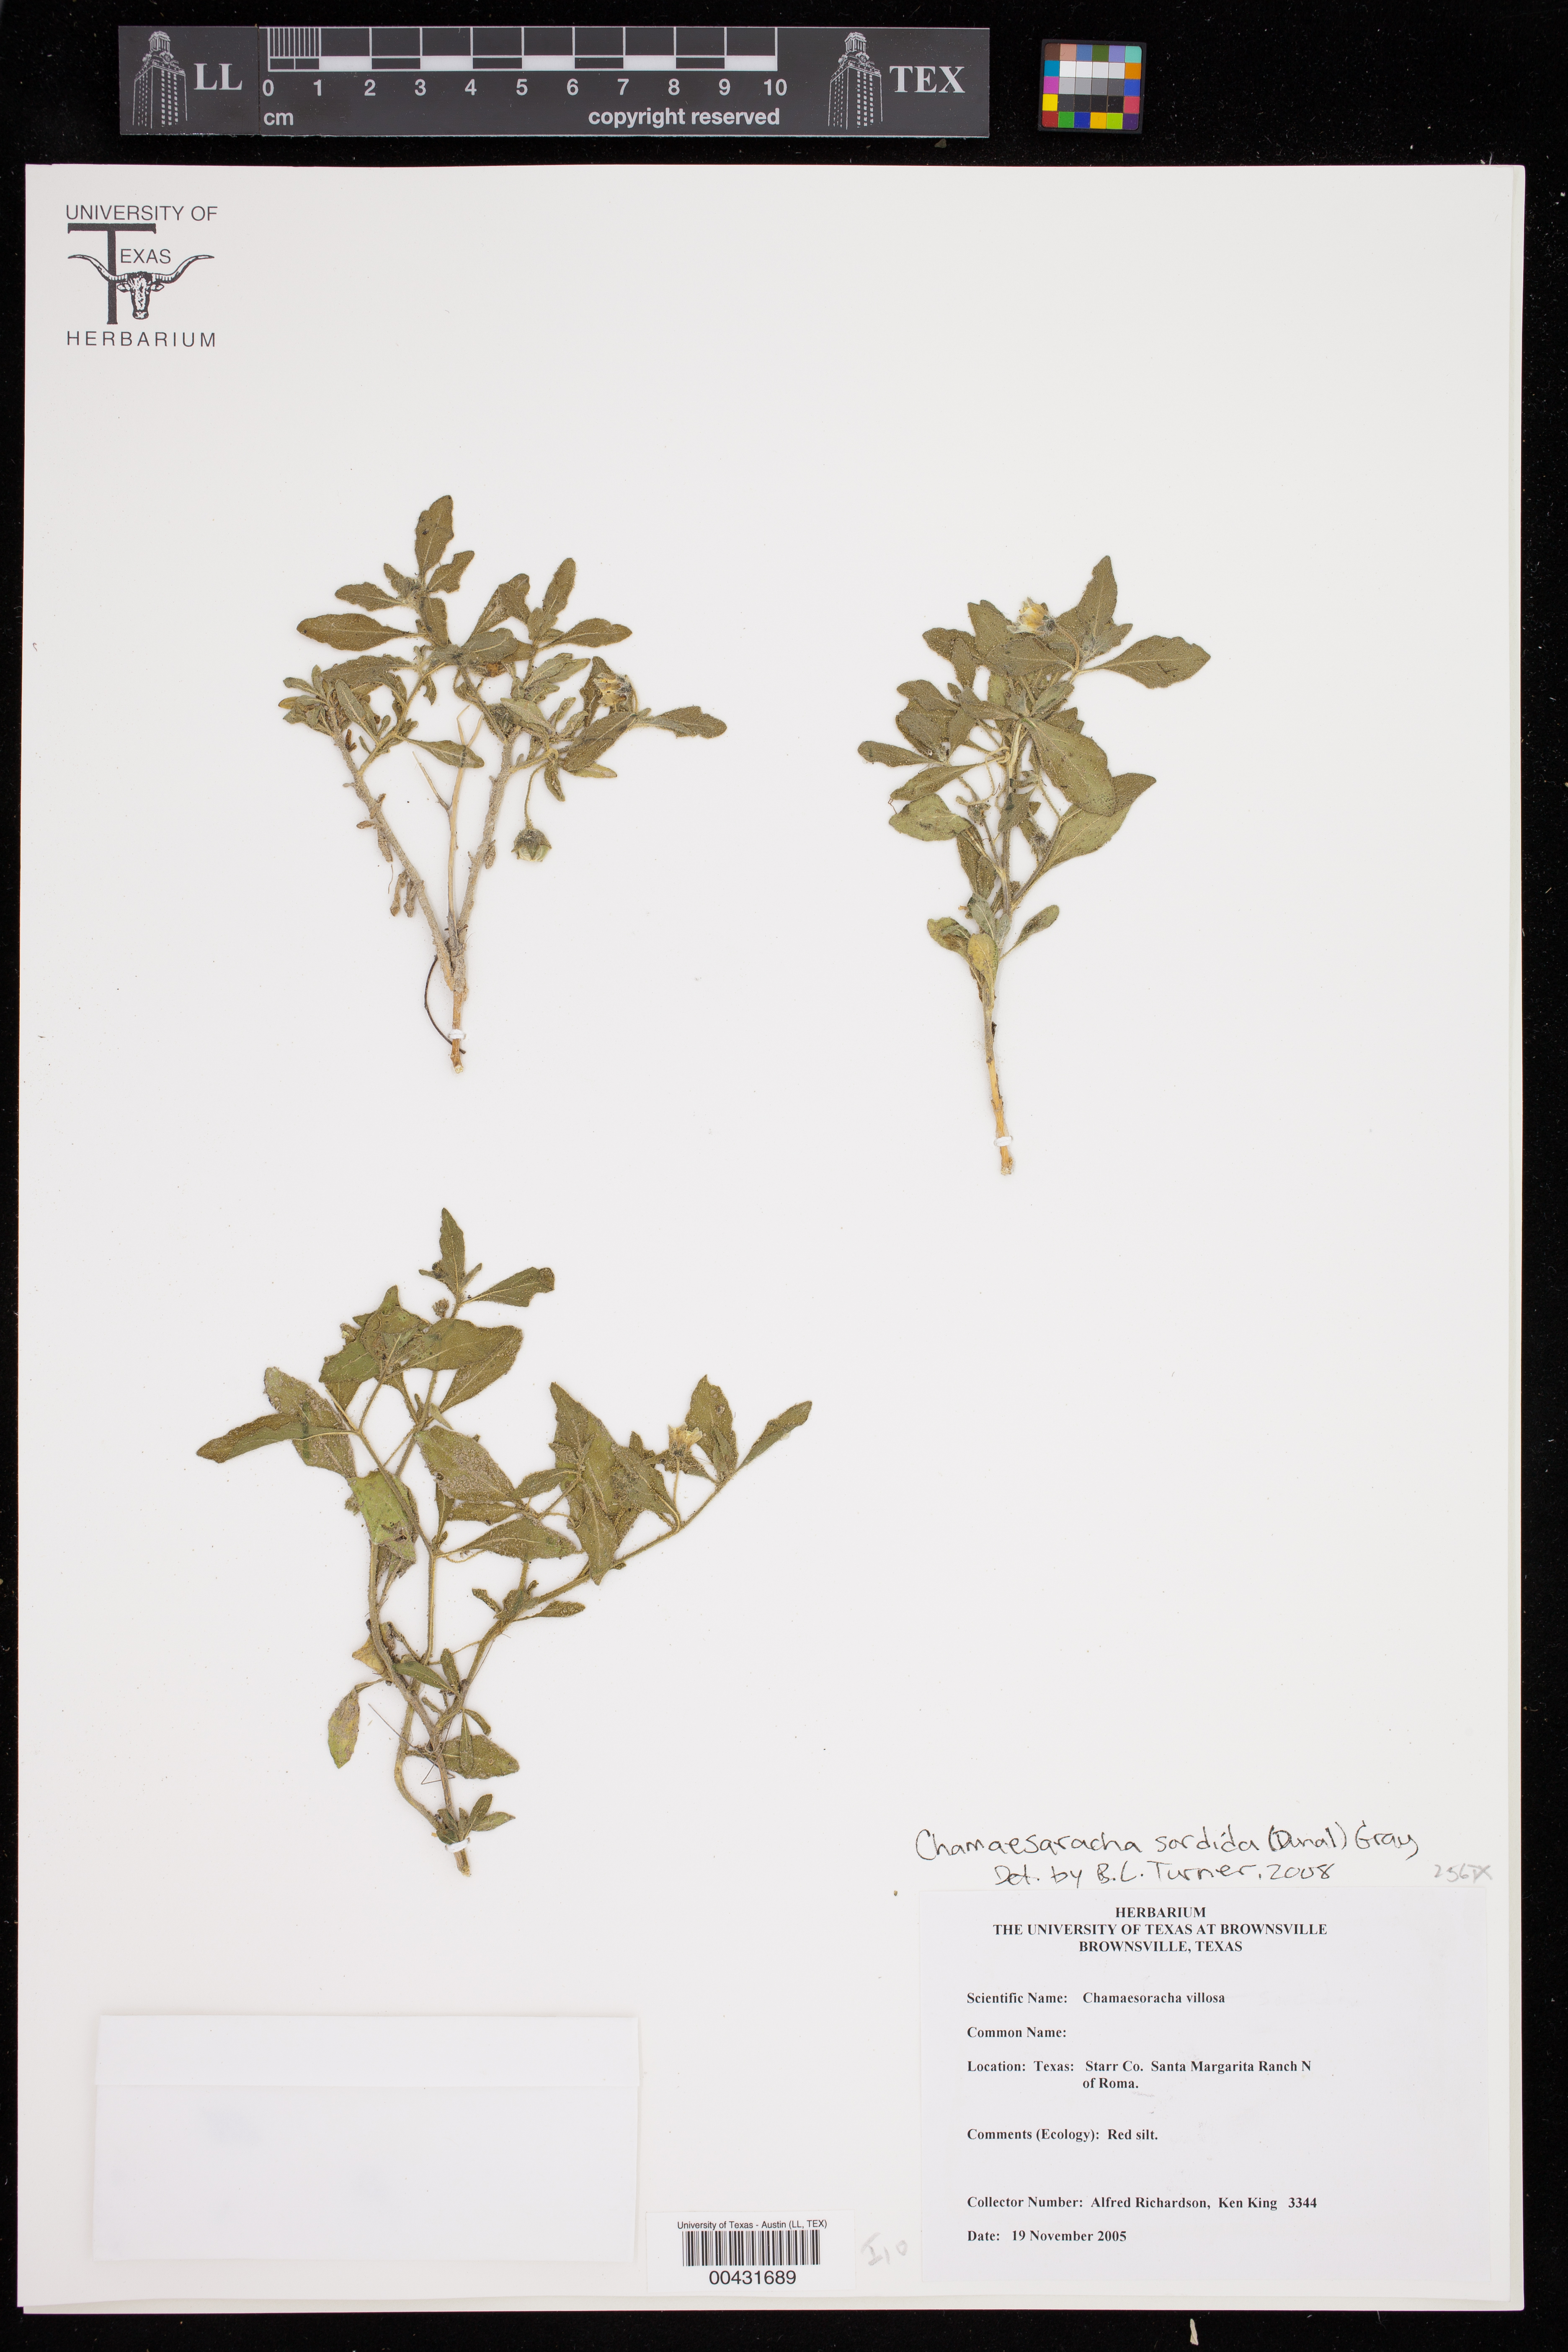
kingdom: Plantae
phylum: Tracheophyta
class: Magnoliopsida
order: Solanales
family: Solanaceae
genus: Chamaesaracha
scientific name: Chamaesaracha sordida
